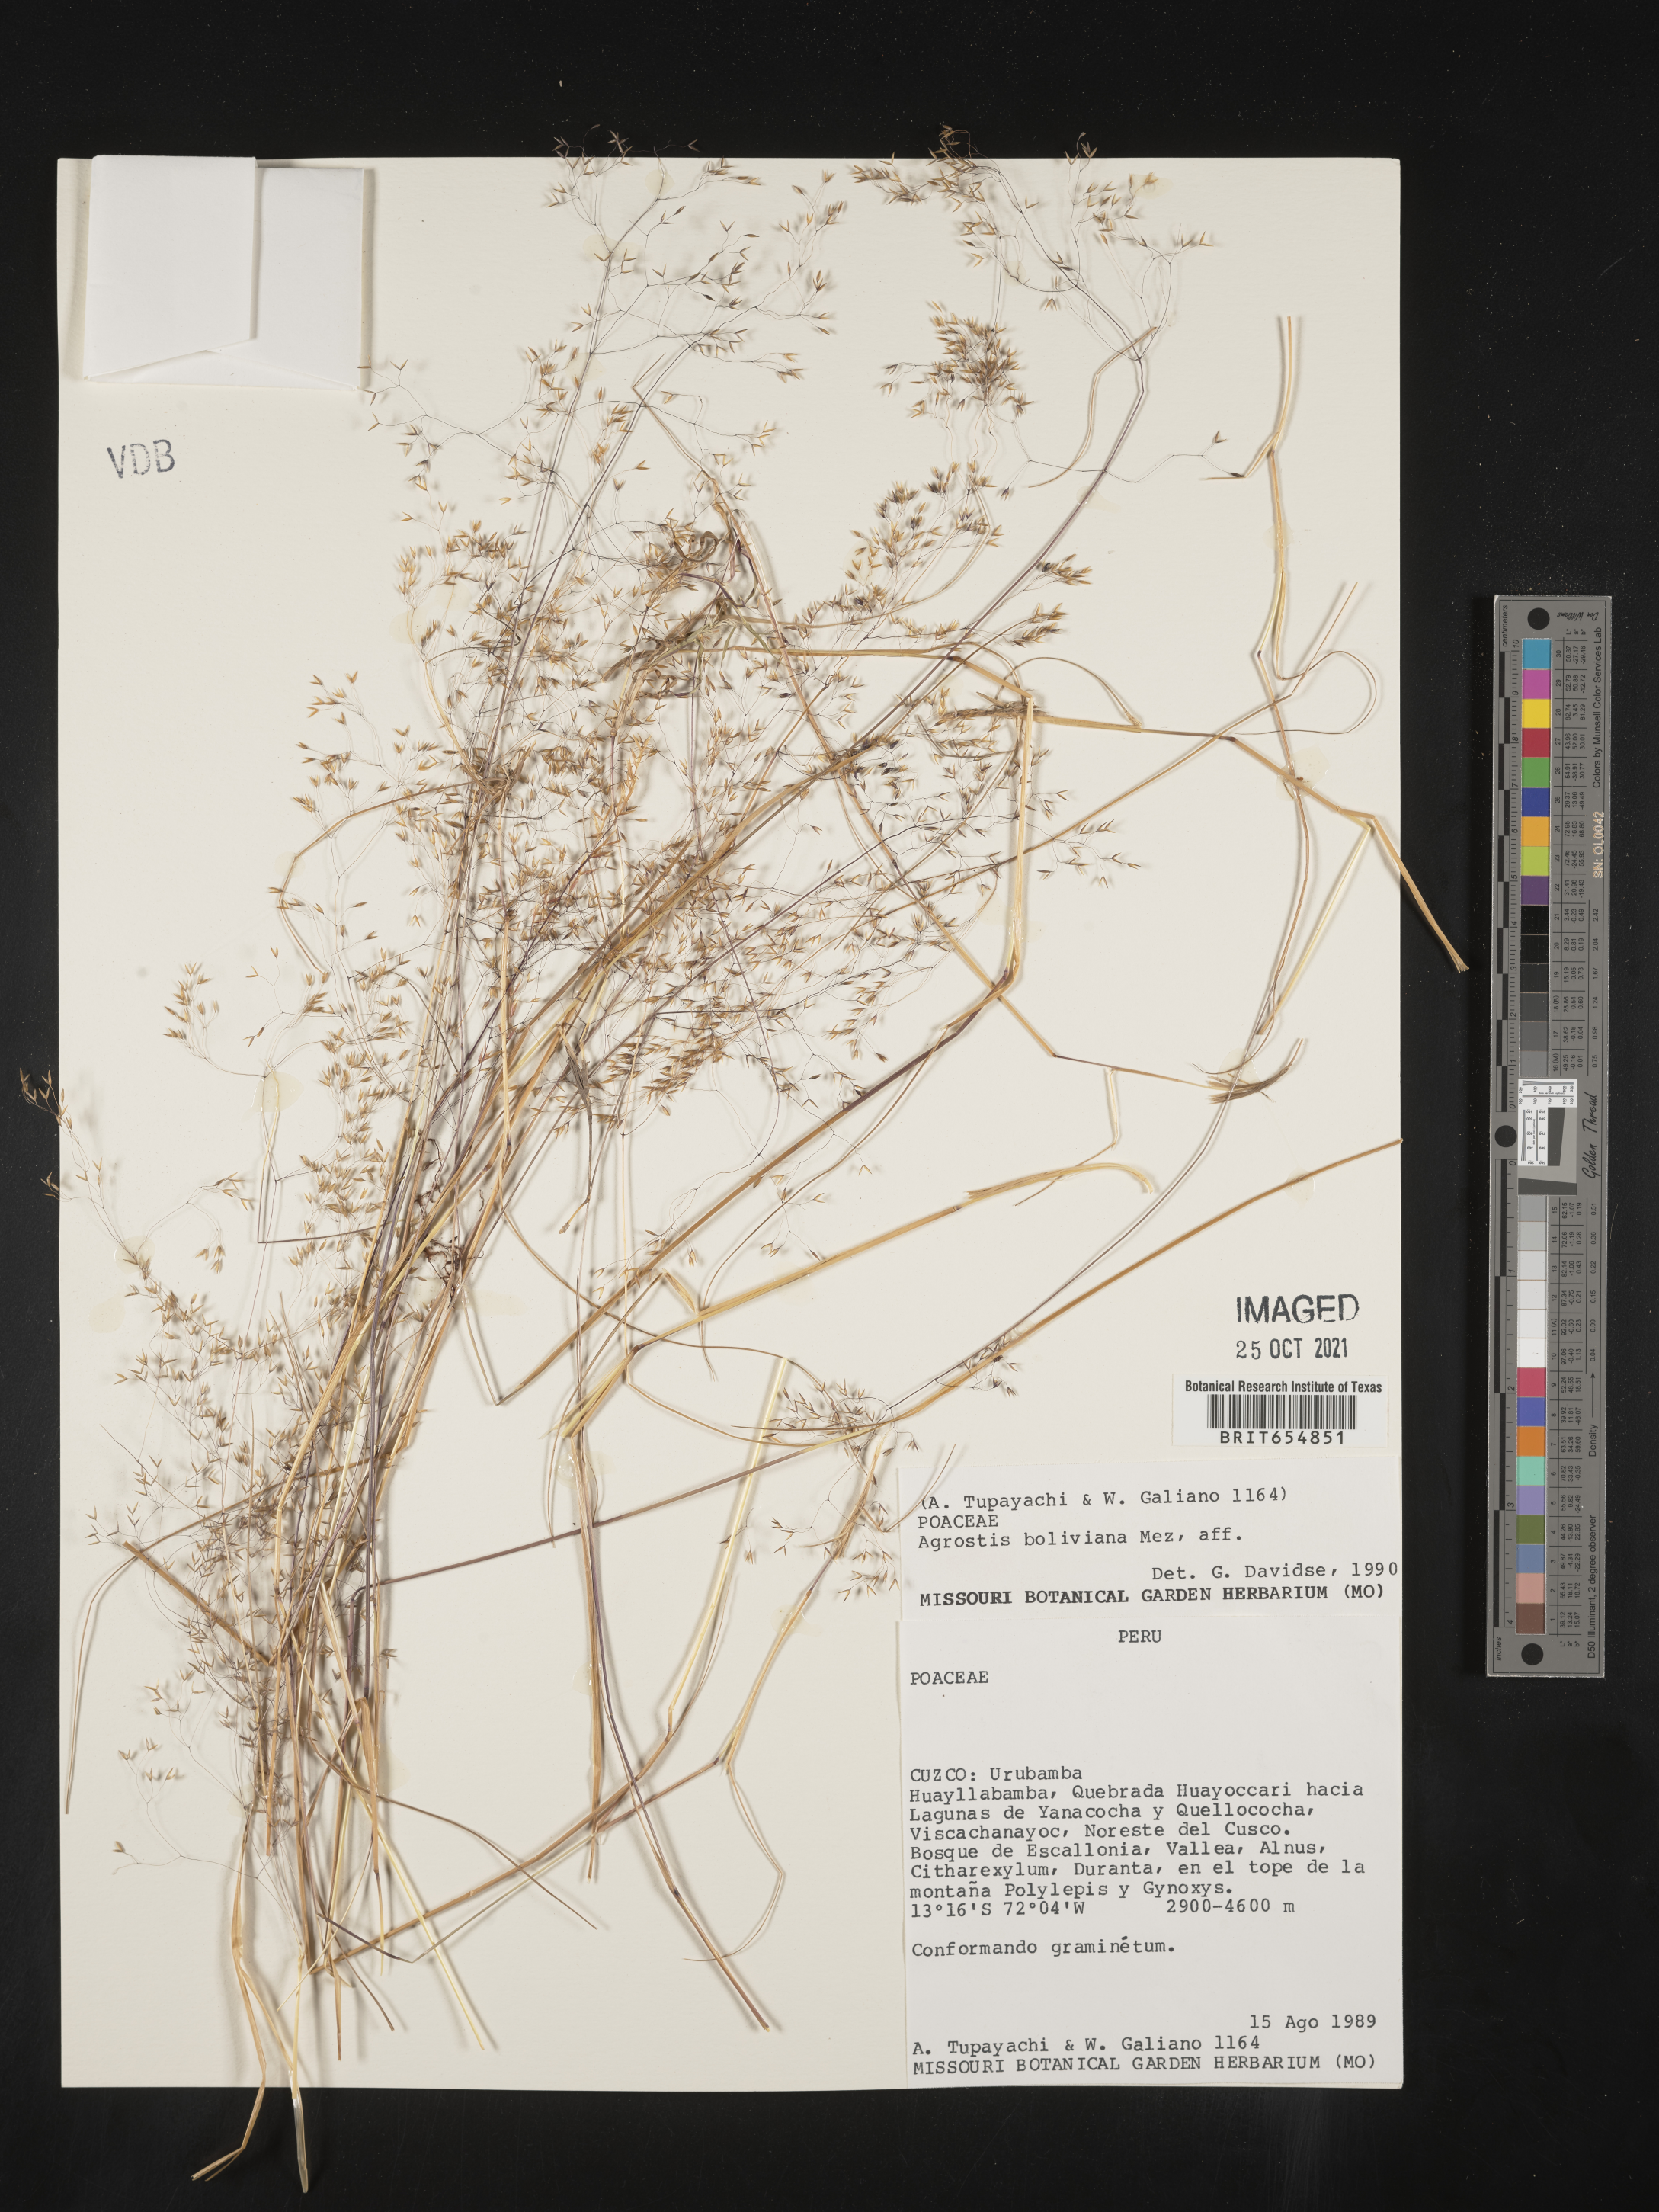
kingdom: Plantae
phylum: Tracheophyta
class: Liliopsida
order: Poales
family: Poaceae
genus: Agrostis
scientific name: Agrostis
